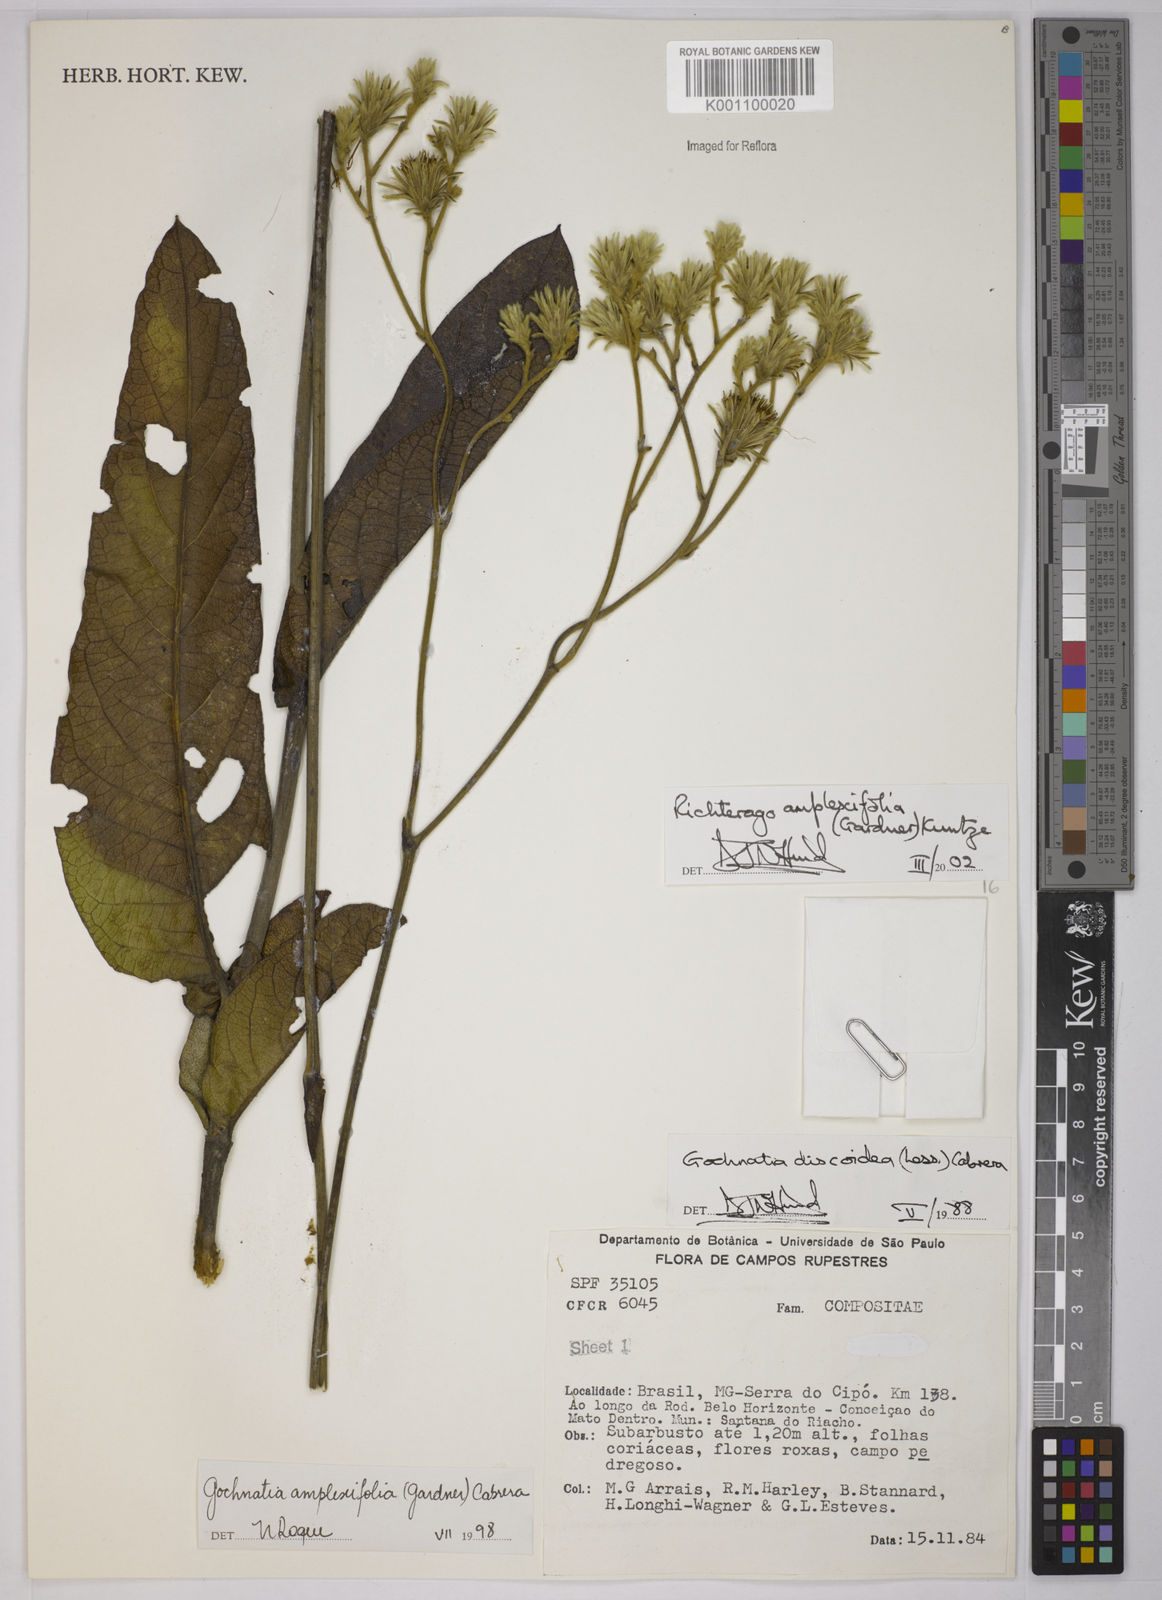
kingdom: Plantae
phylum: Tracheophyta
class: Magnoliopsida
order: Asterales
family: Asteraceae
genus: Richterago
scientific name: Richterago amplexifolia
